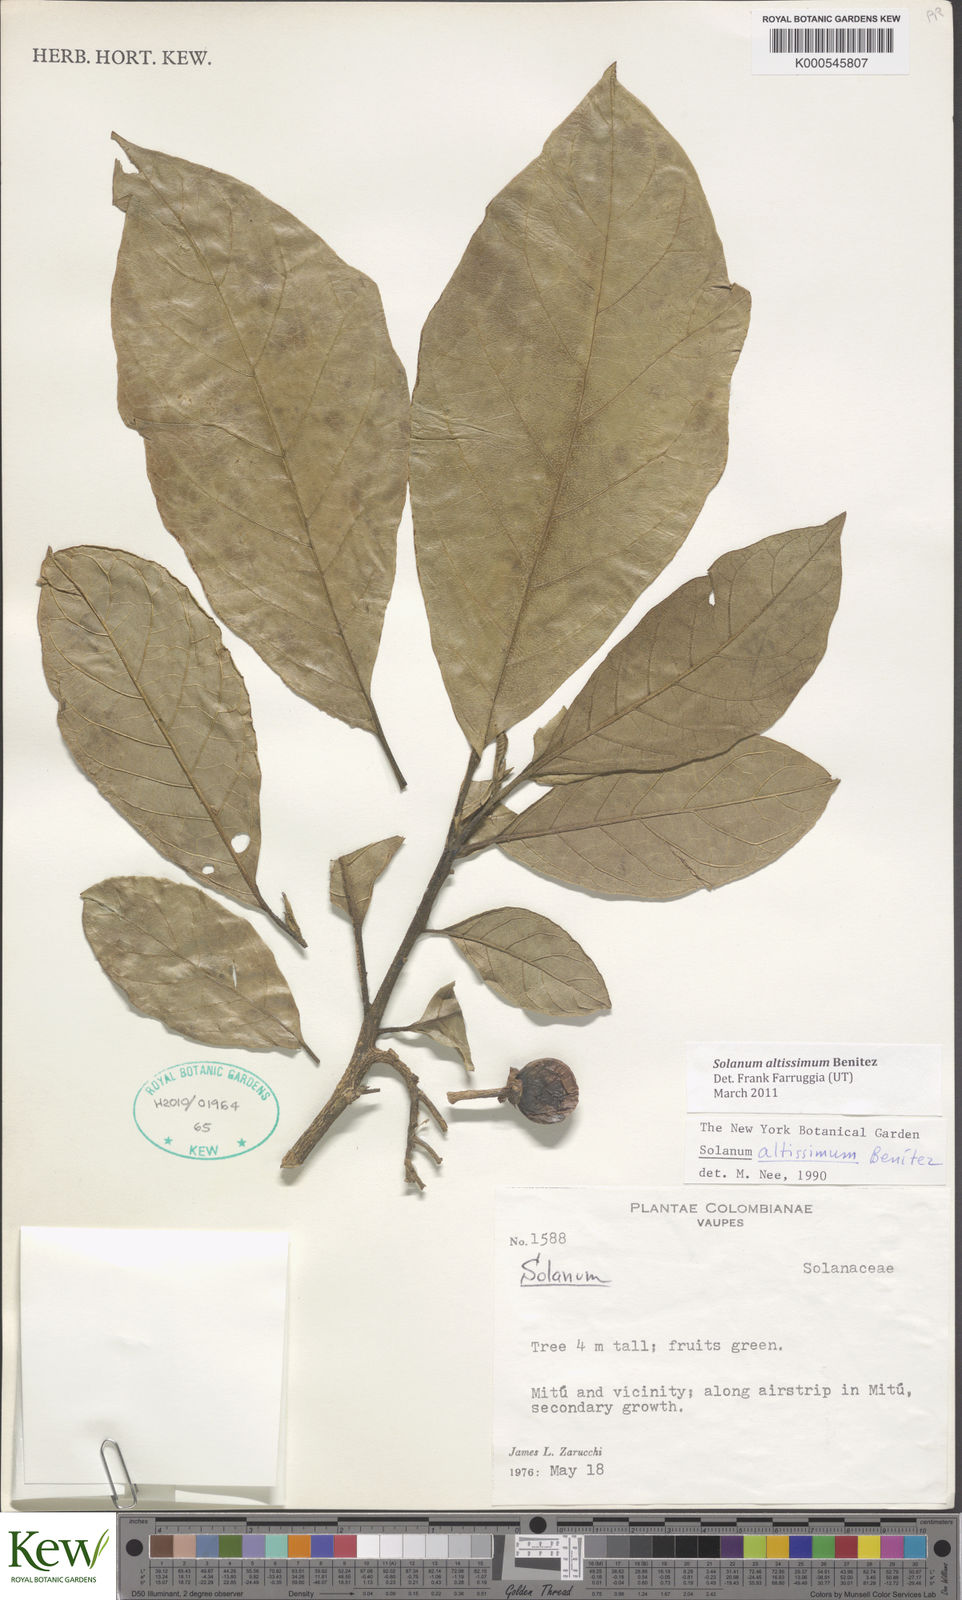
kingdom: Plantae
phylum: Tracheophyta
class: Magnoliopsida
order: Solanales
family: Solanaceae
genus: Solanum
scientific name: Solanum
